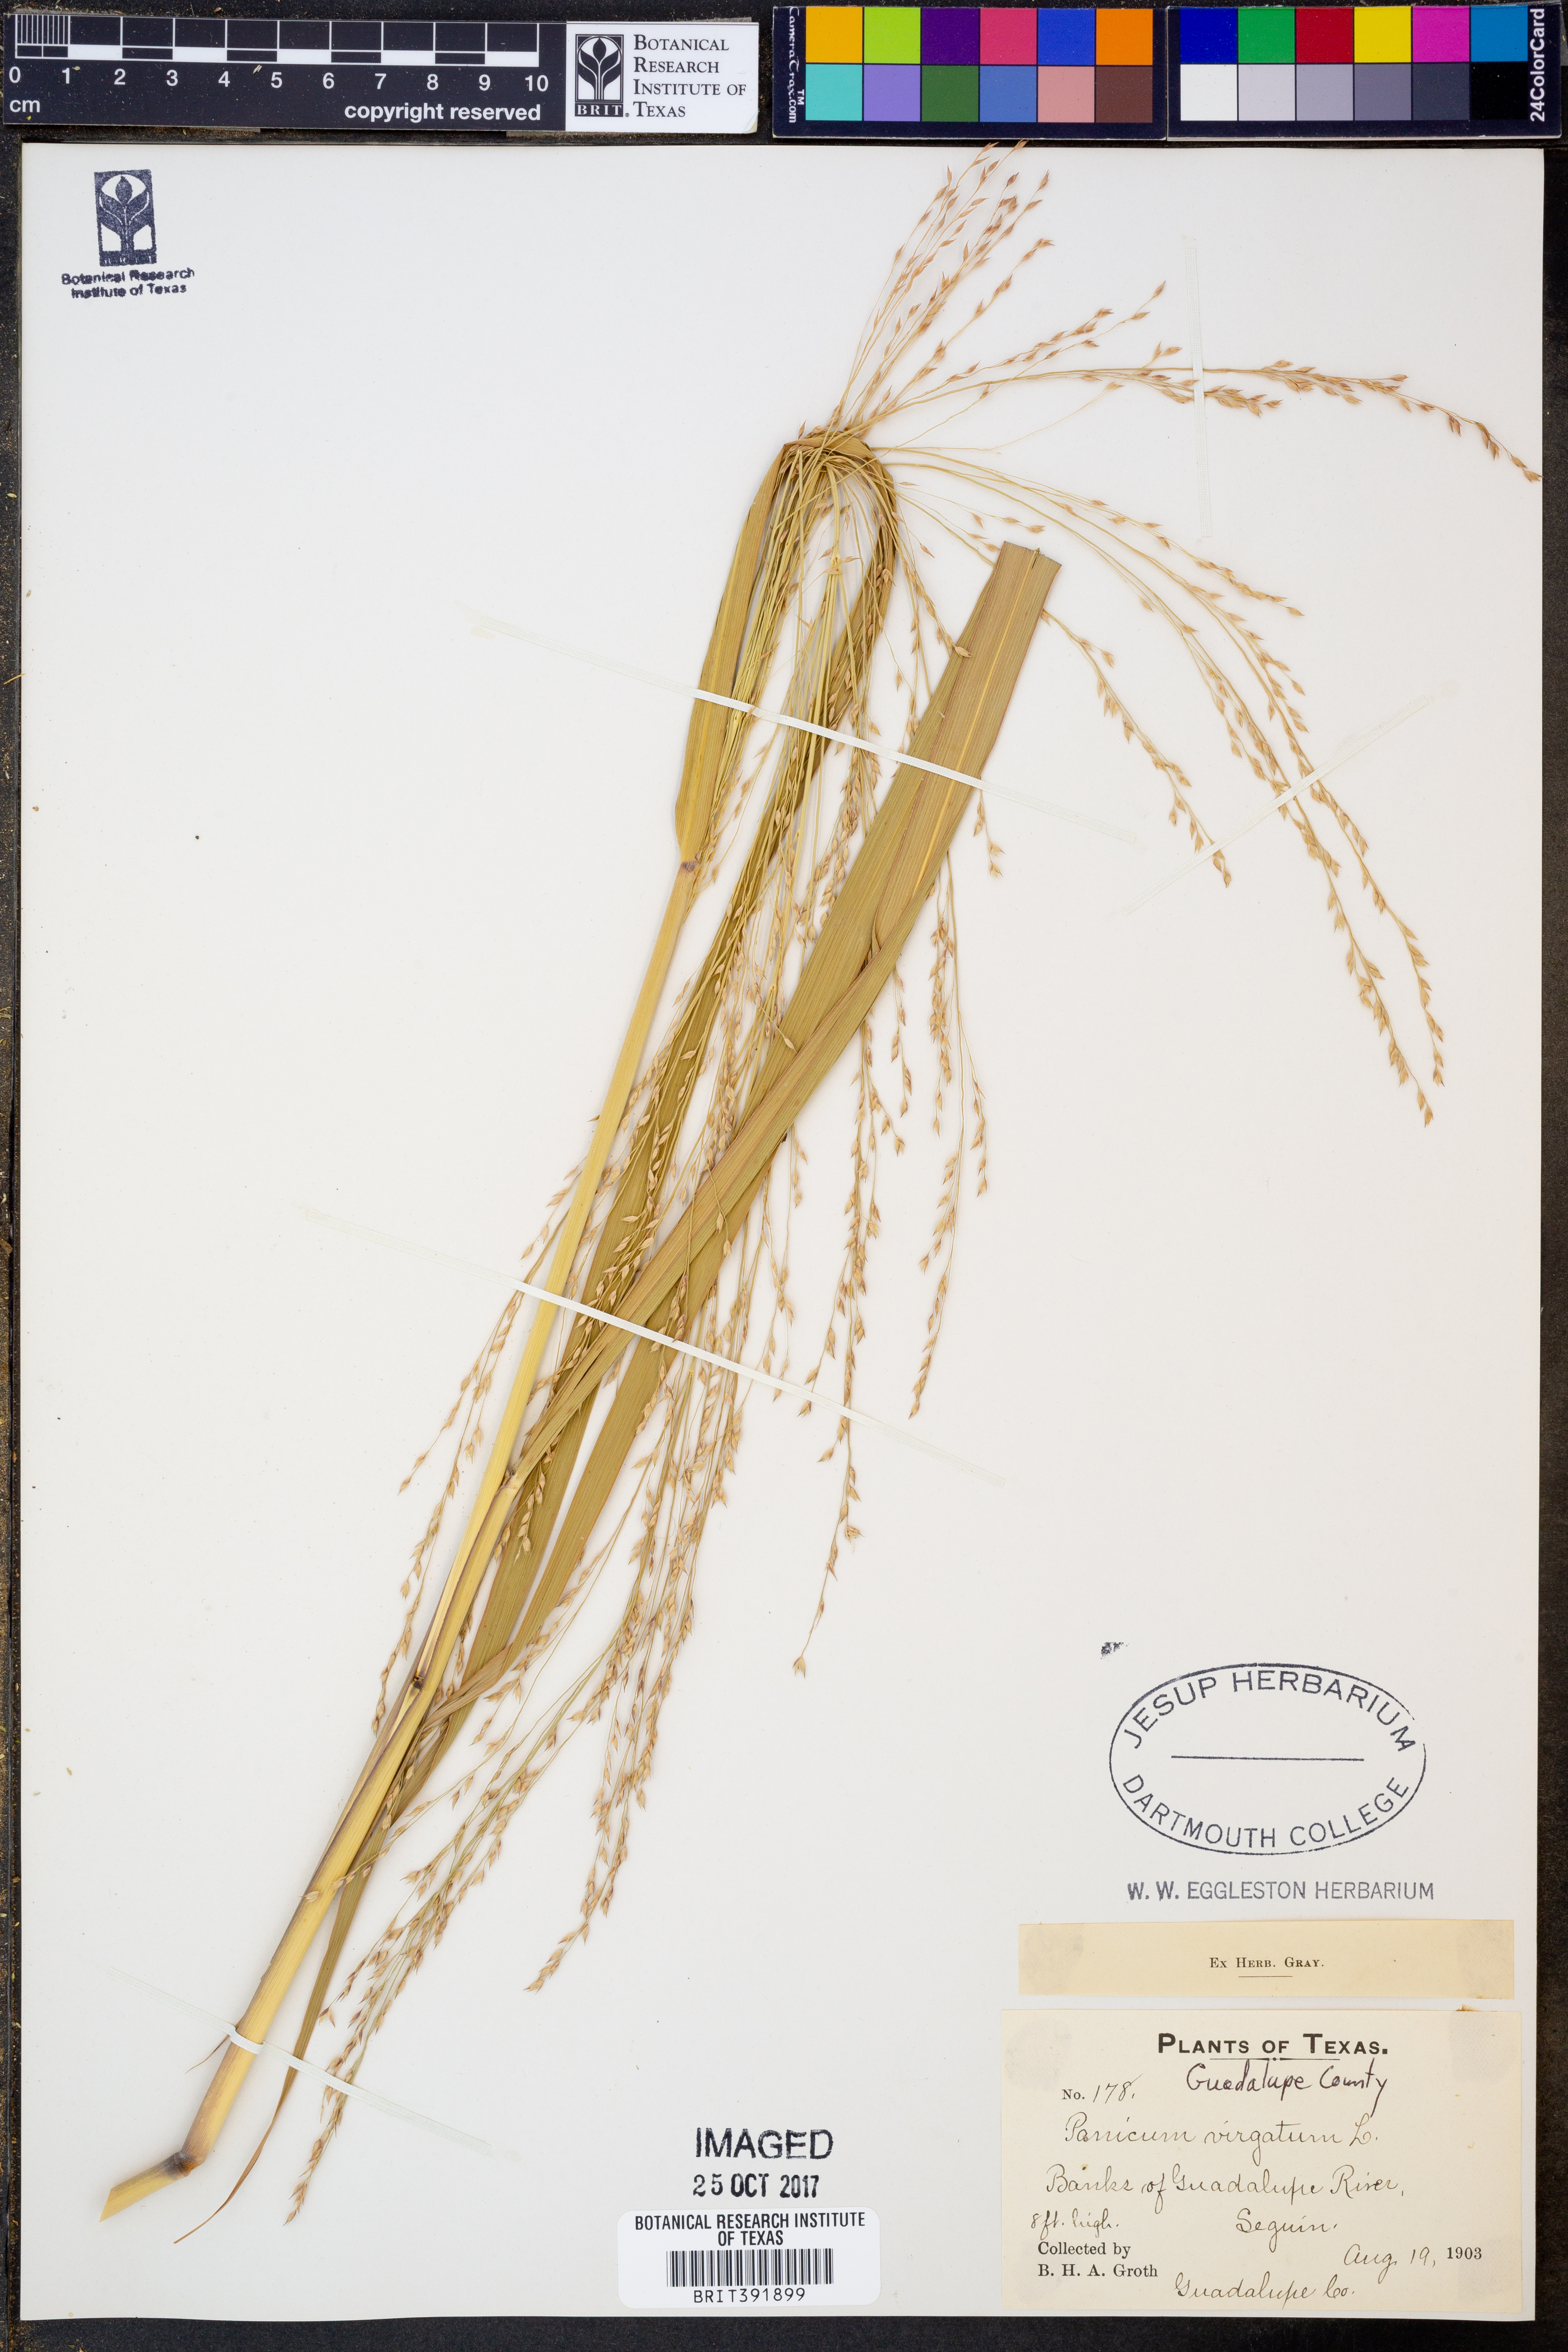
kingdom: Plantae
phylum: Tracheophyta
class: Liliopsida
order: Poales
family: Poaceae
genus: Panicum
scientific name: Panicum virgatum
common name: Switchgrass
